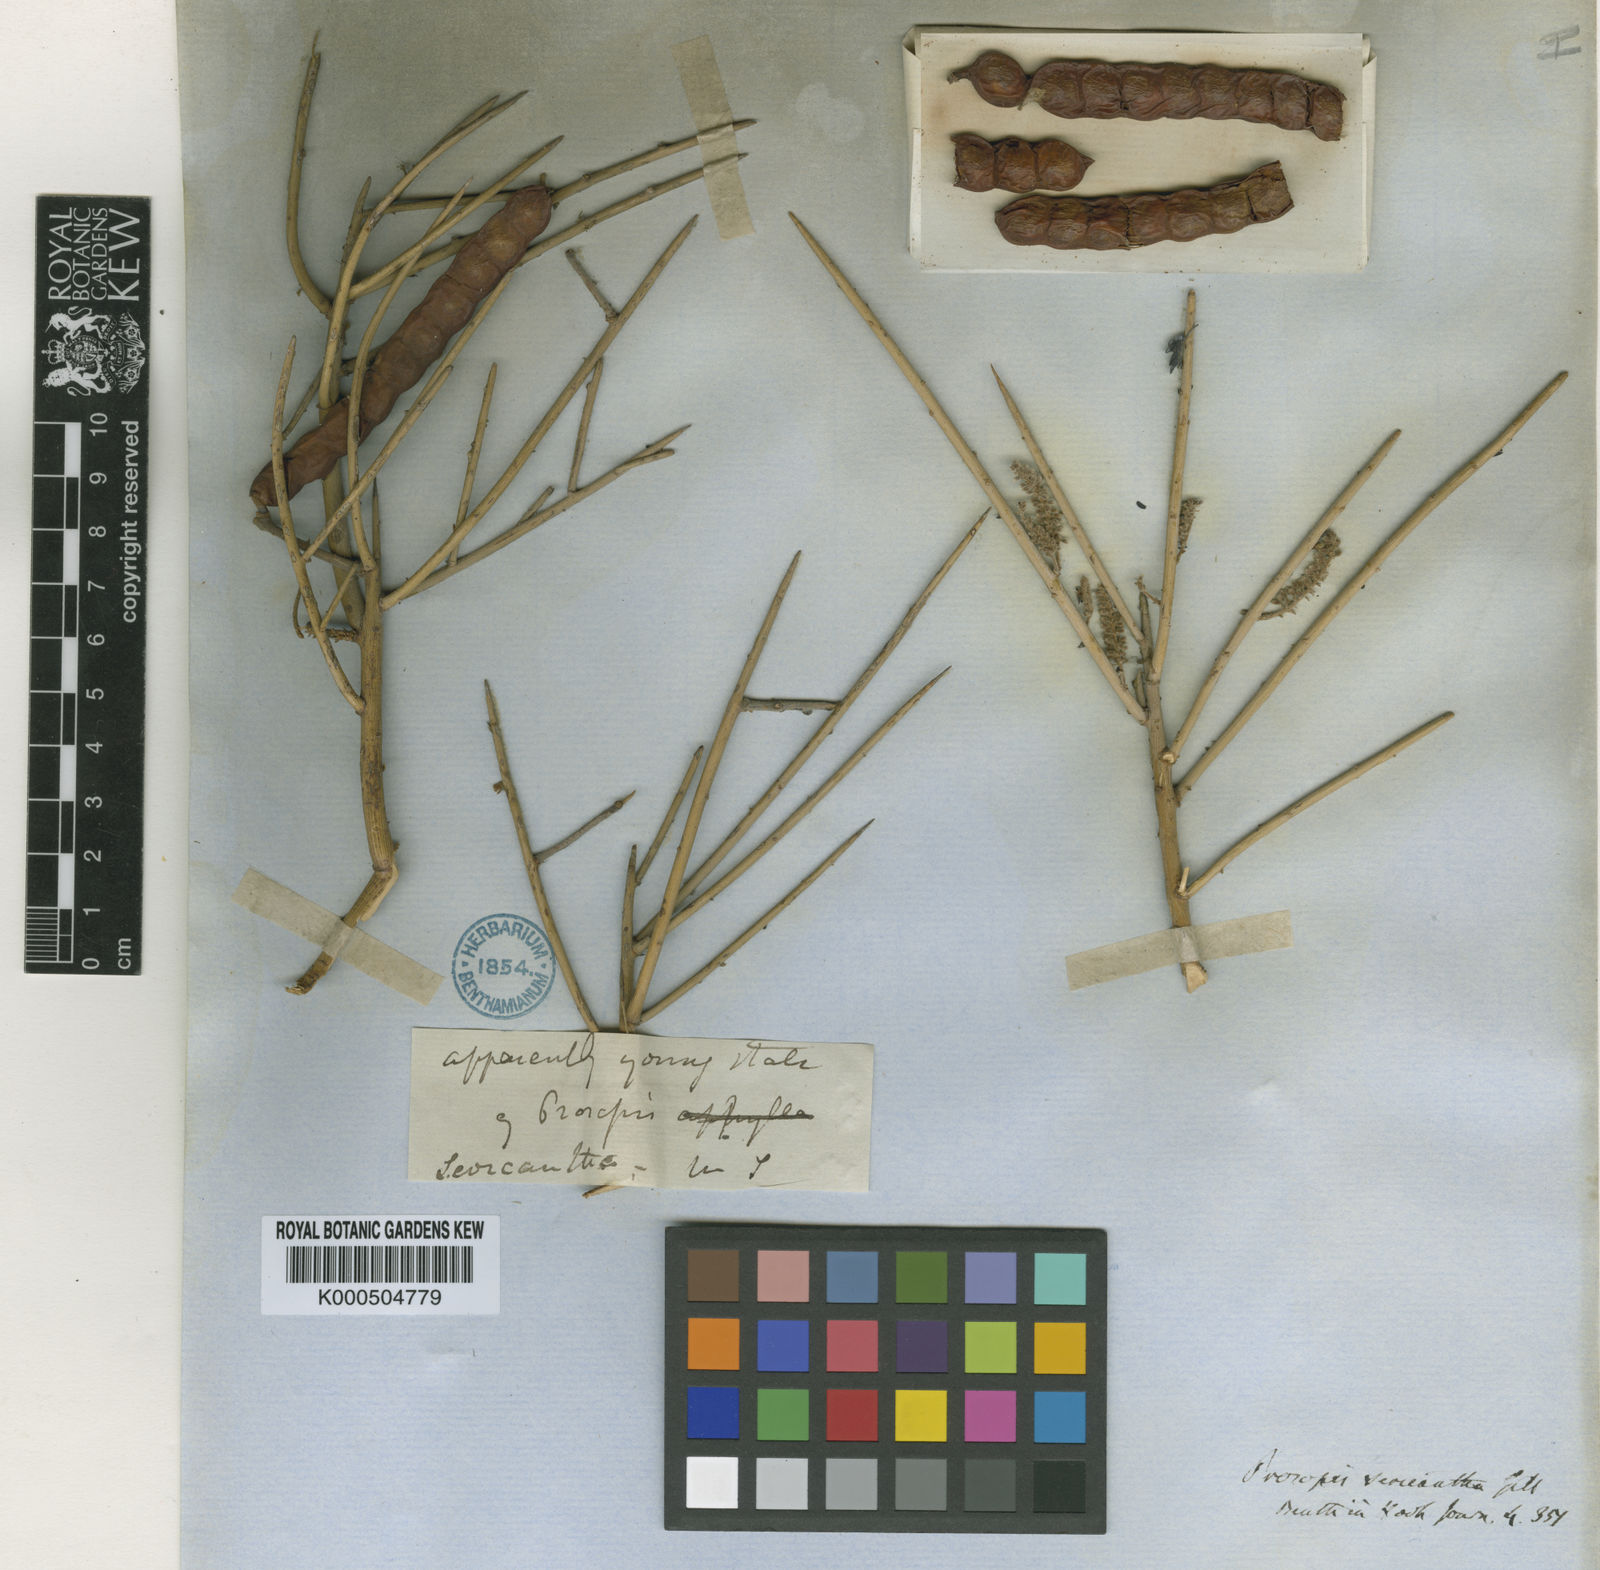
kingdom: Plantae
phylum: Tracheophyta
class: Magnoliopsida
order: Fabales
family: Fabaceae
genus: Prosopis
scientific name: Prosopis sericantha
